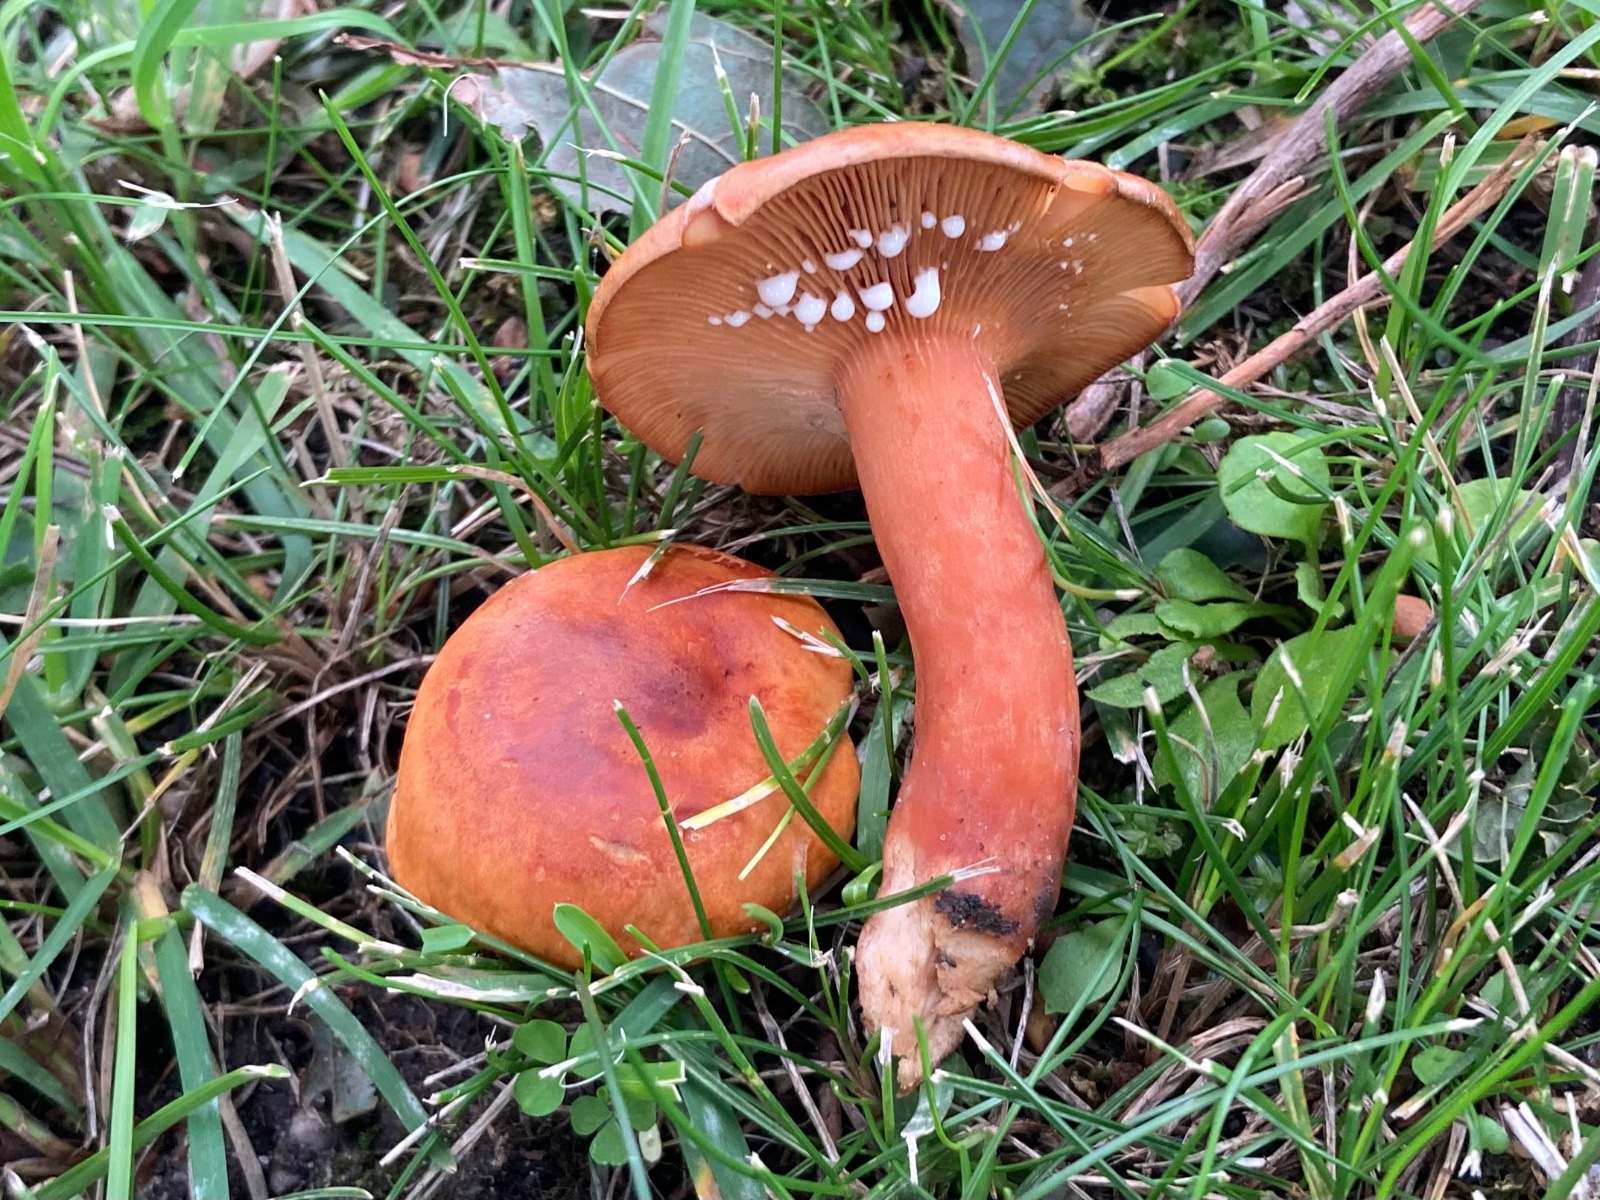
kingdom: Fungi
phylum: Basidiomycota
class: Agaricomycetes
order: Russulales
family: Russulaceae
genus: Lactarius
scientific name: Lactarius fulvissimus
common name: ræve-mælkehat
